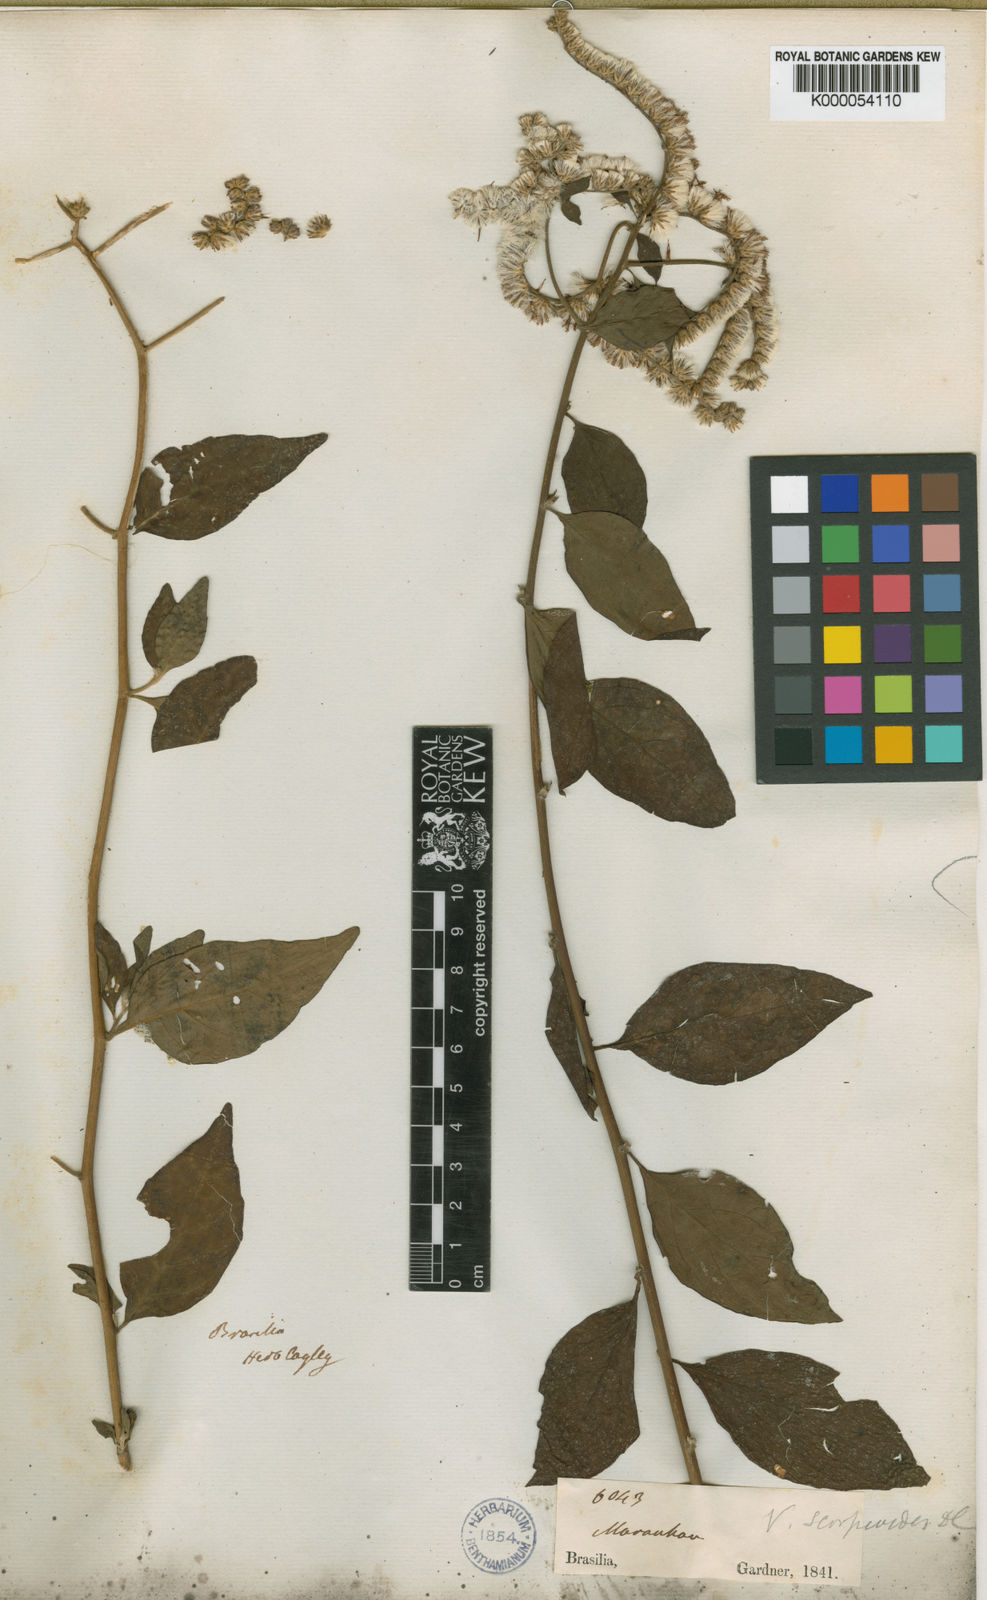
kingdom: Plantae
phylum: Tracheophyta
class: Magnoliopsida
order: Asterales
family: Asteraceae
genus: Vernonia
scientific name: Vernonia
